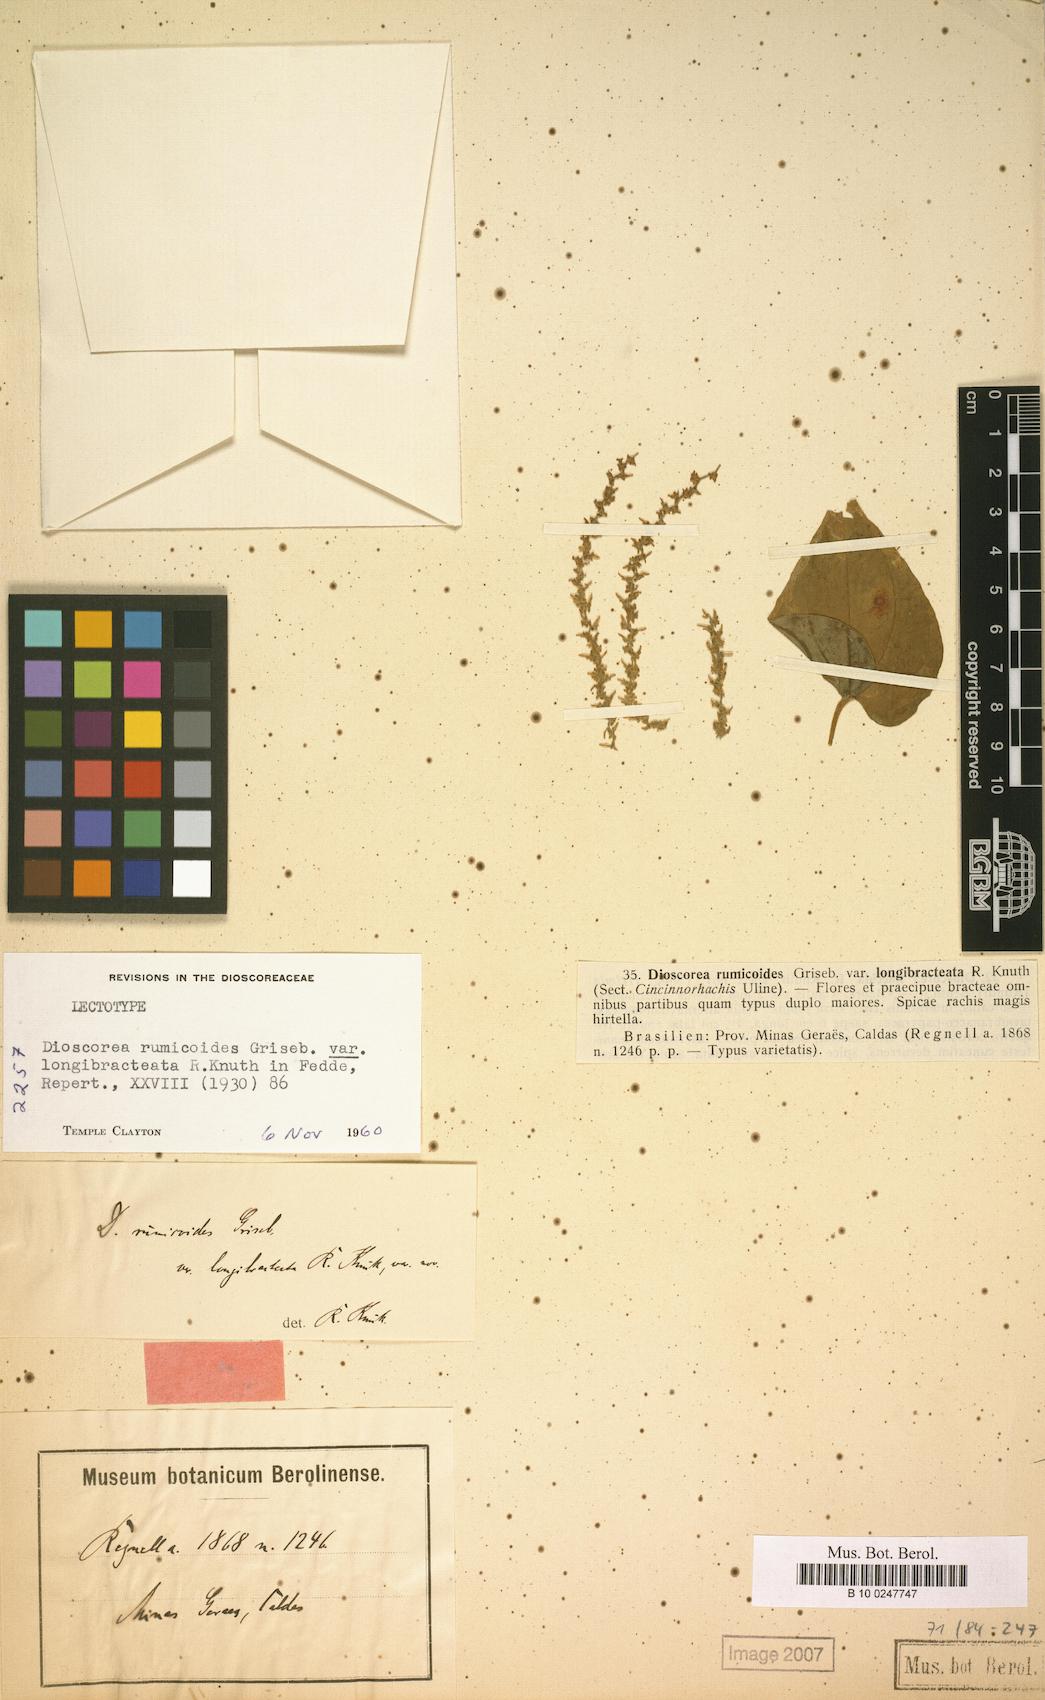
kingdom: Plantae
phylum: Tracheophyta
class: Liliopsida
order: Dioscoreales
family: Dioscoreaceae
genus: Dioscorea
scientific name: Dioscorea rumicoides
